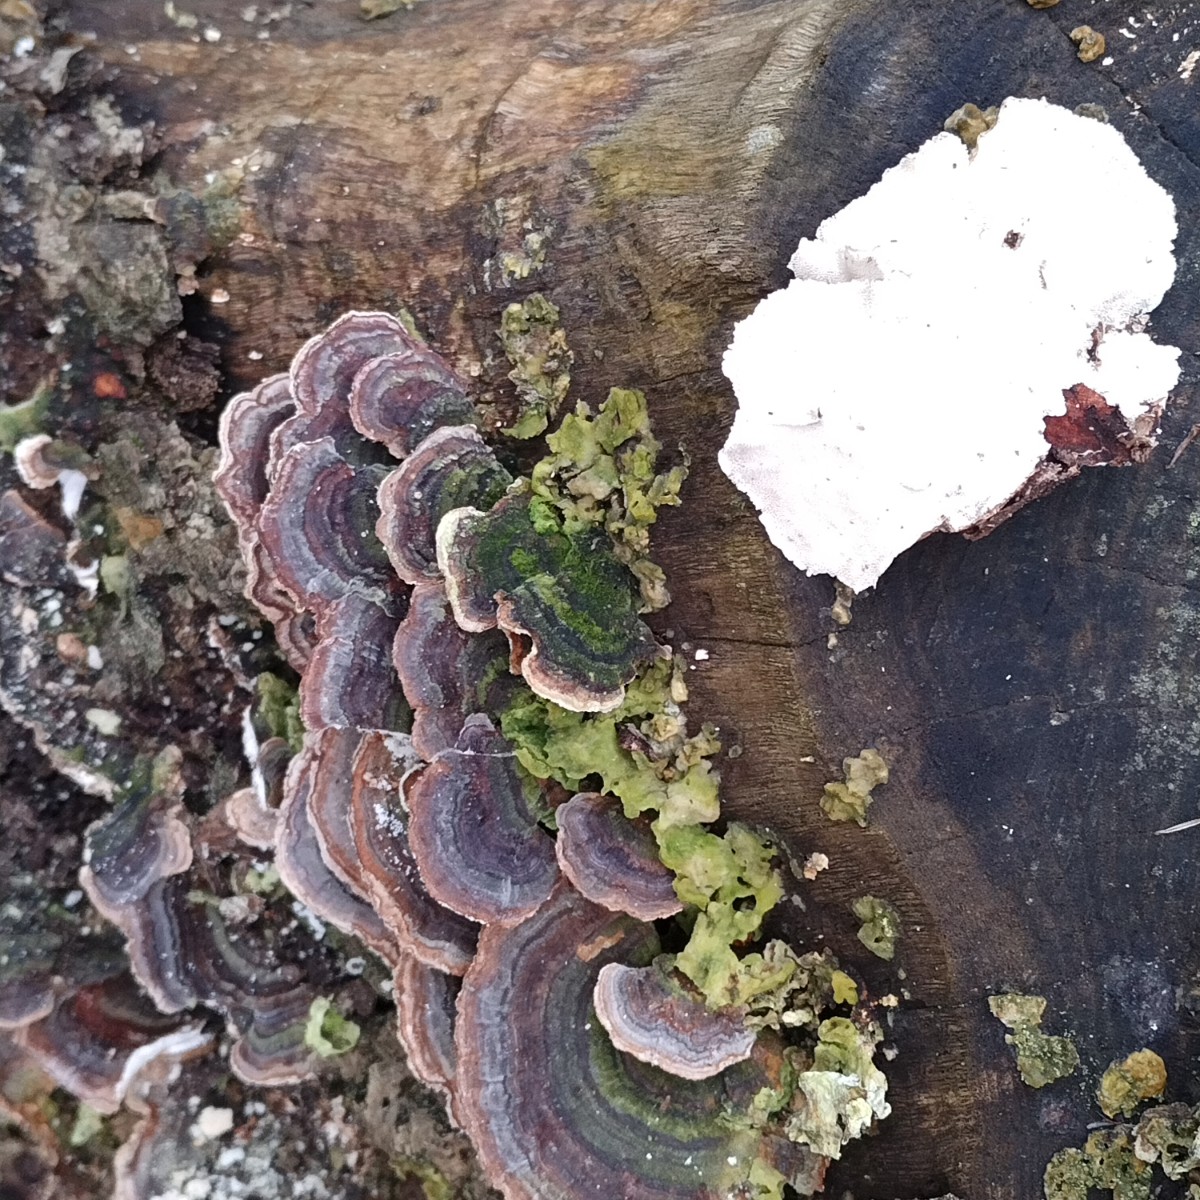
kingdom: Fungi
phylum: Basidiomycota
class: Agaricomycetes
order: Polyporales
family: Polyporaceae
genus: Trametes
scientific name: Trametes versicolor
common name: broget læderporesvamp
